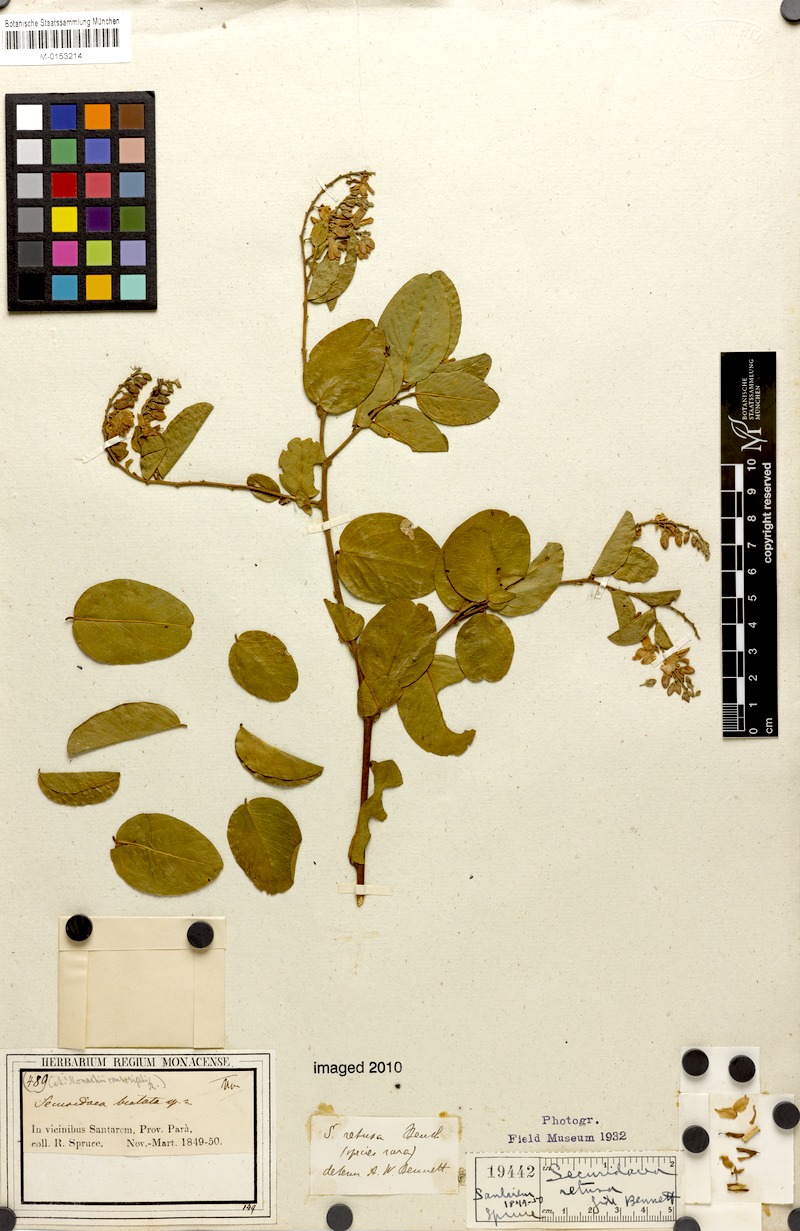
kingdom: Plantae
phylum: Tracheophyta
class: Magnoliopsida
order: Fabales
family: Polygalaceae
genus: Securidaca
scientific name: Securidaca bialata
